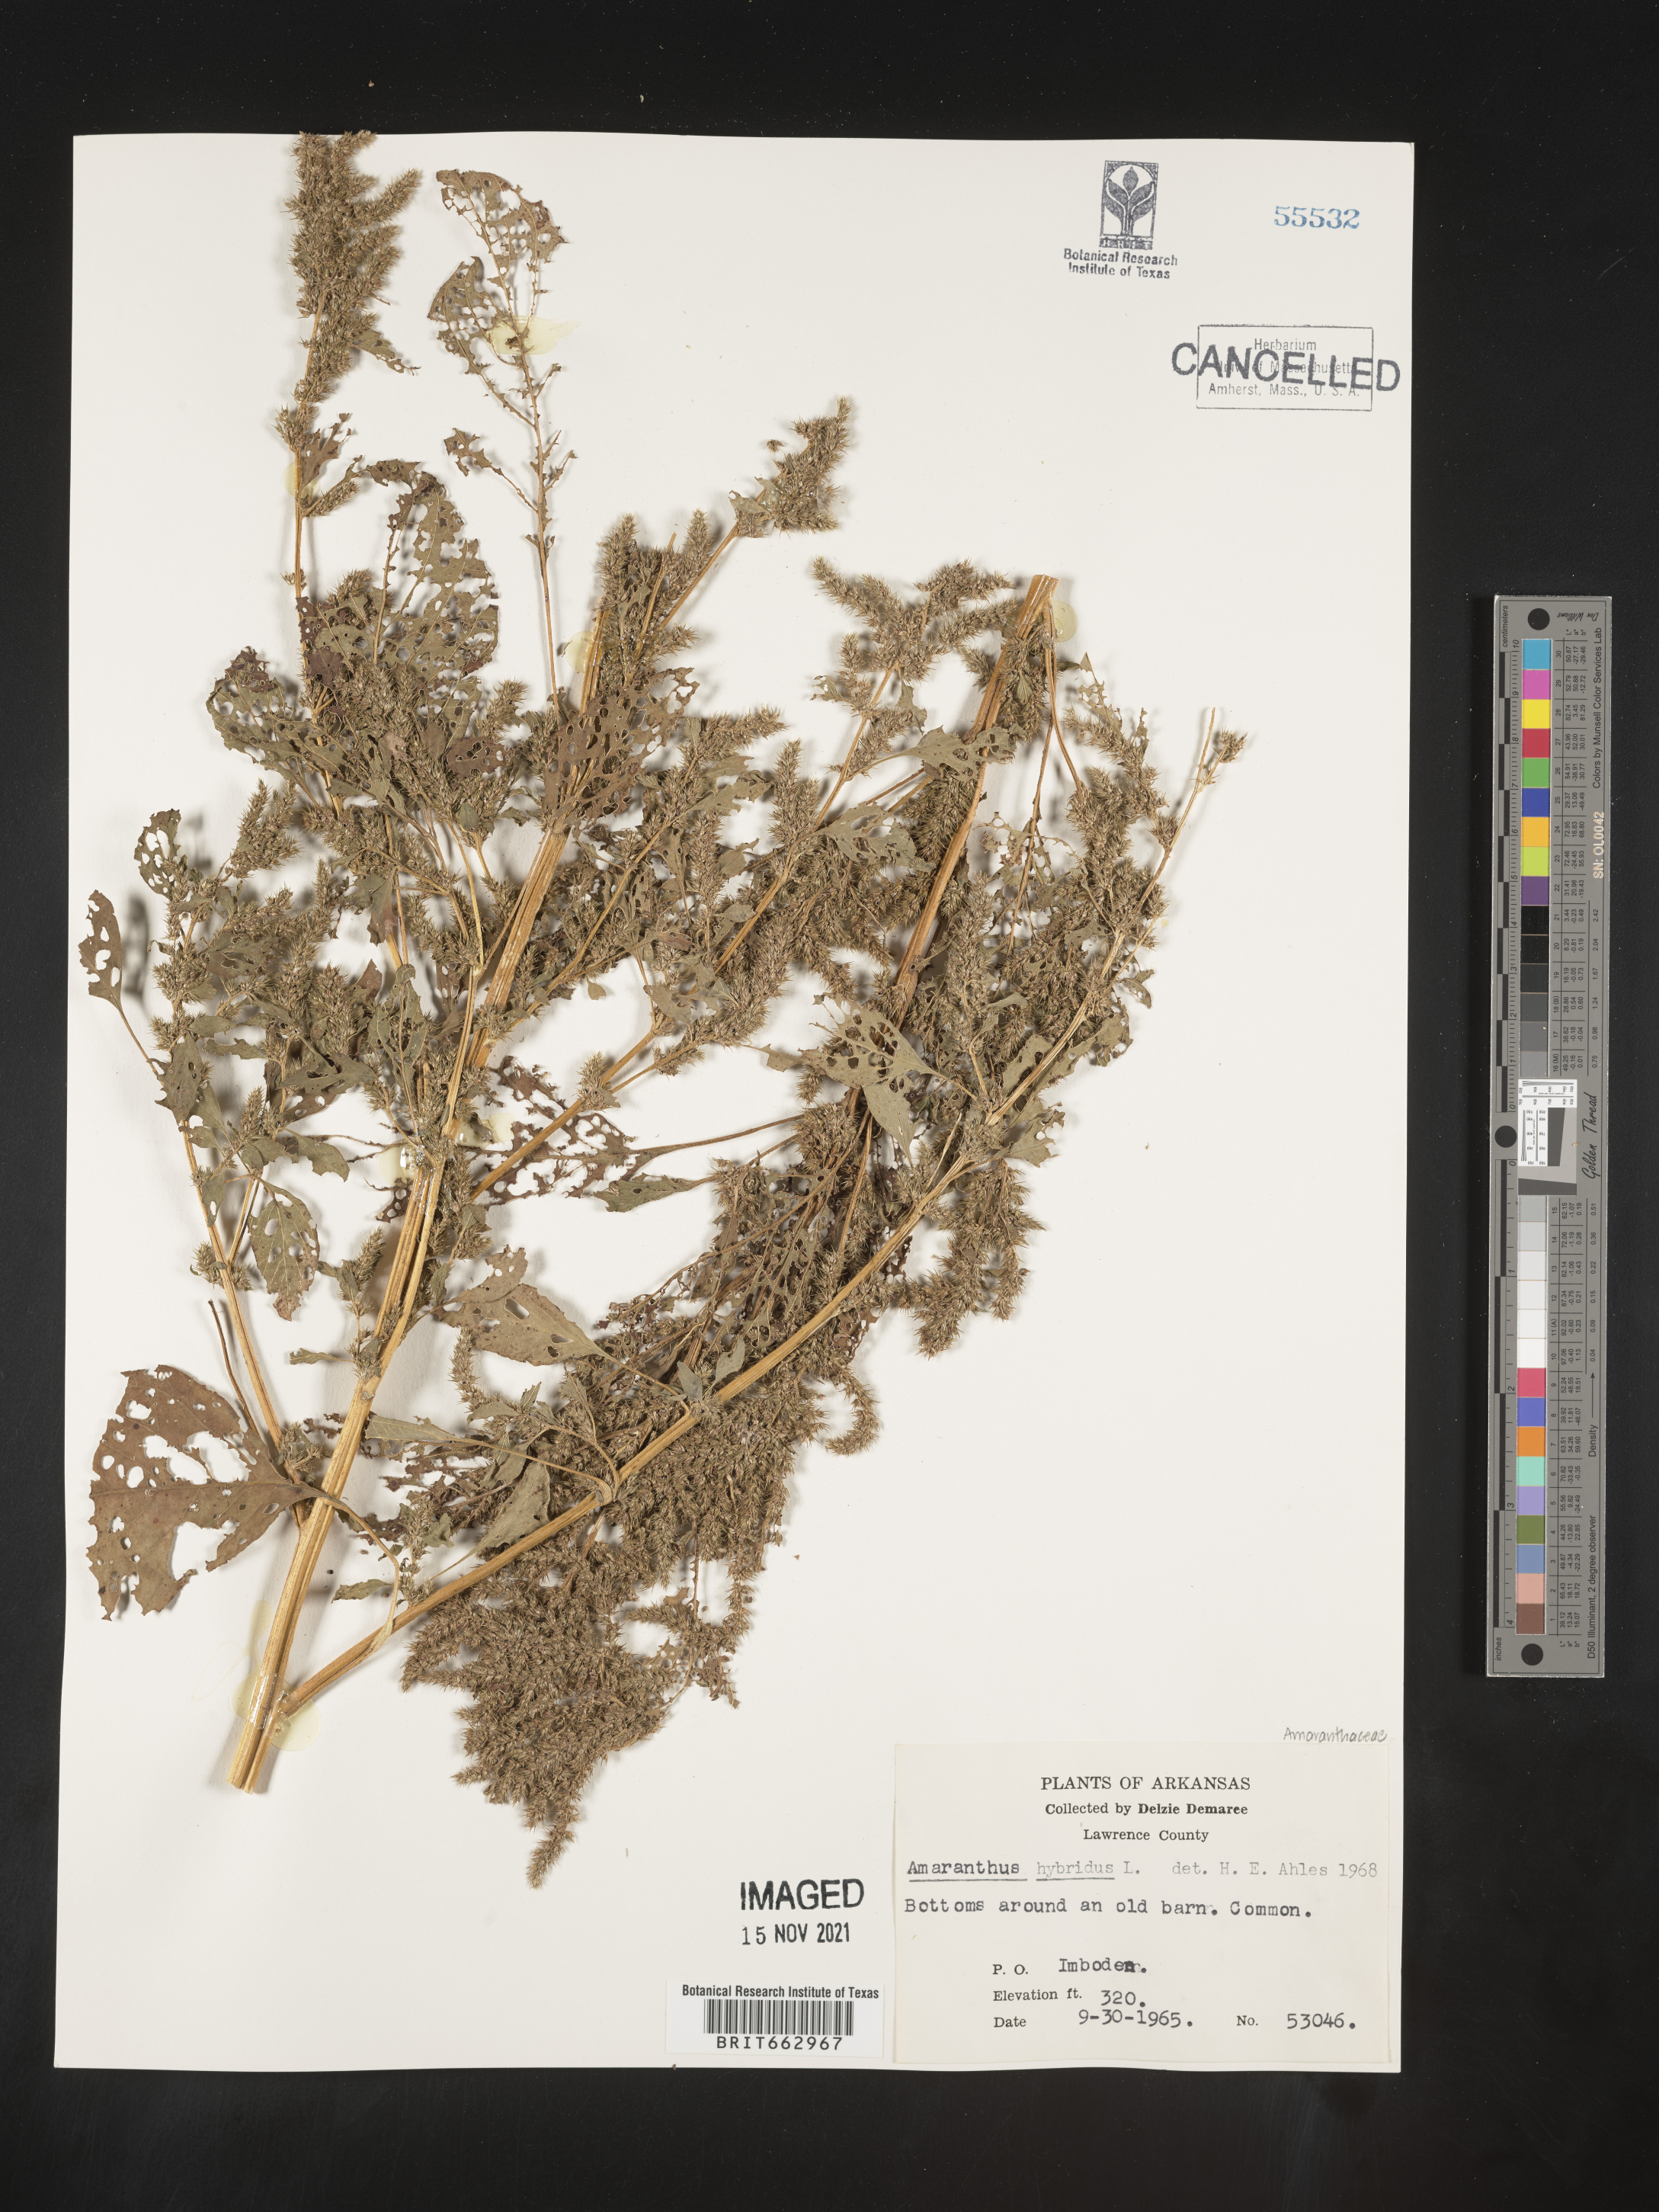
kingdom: Plantae
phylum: Tracheophyta
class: Magnoliopsida
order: Caryophyllales
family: Amaranthaceae
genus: Amaranthus
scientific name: Amaranthus hybridus
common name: Green amaranth
